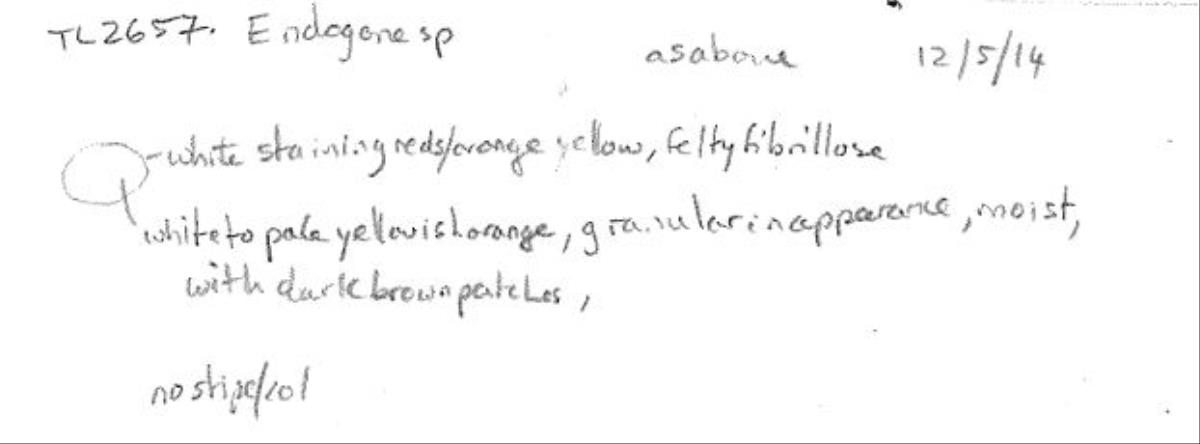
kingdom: Fungi
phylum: Mucoromycota
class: Endogonomycetes
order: Endogonales
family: Endogonaceae
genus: Endogone
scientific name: Endogone
